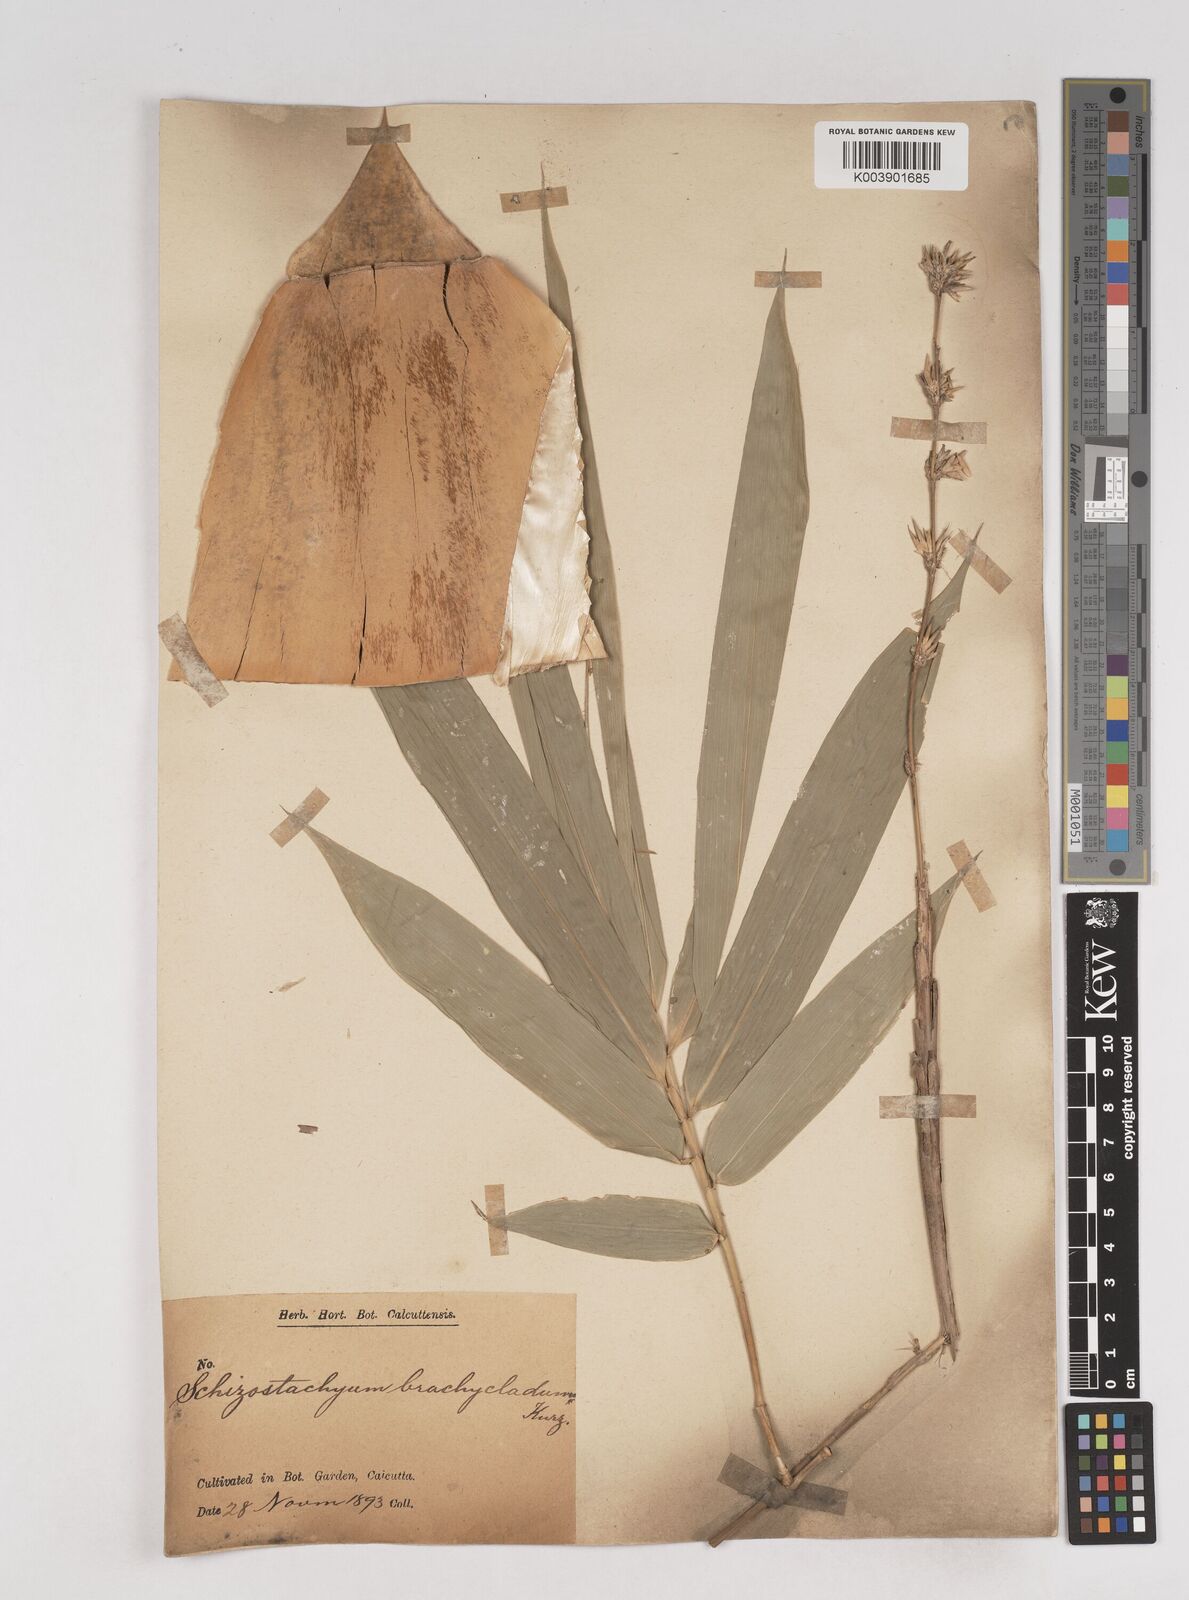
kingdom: Plantae
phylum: Tracheophyta
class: Liliopsida
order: Poales
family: Poaceae
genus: Schizostachyum
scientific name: Schizostachyum brachycladum
